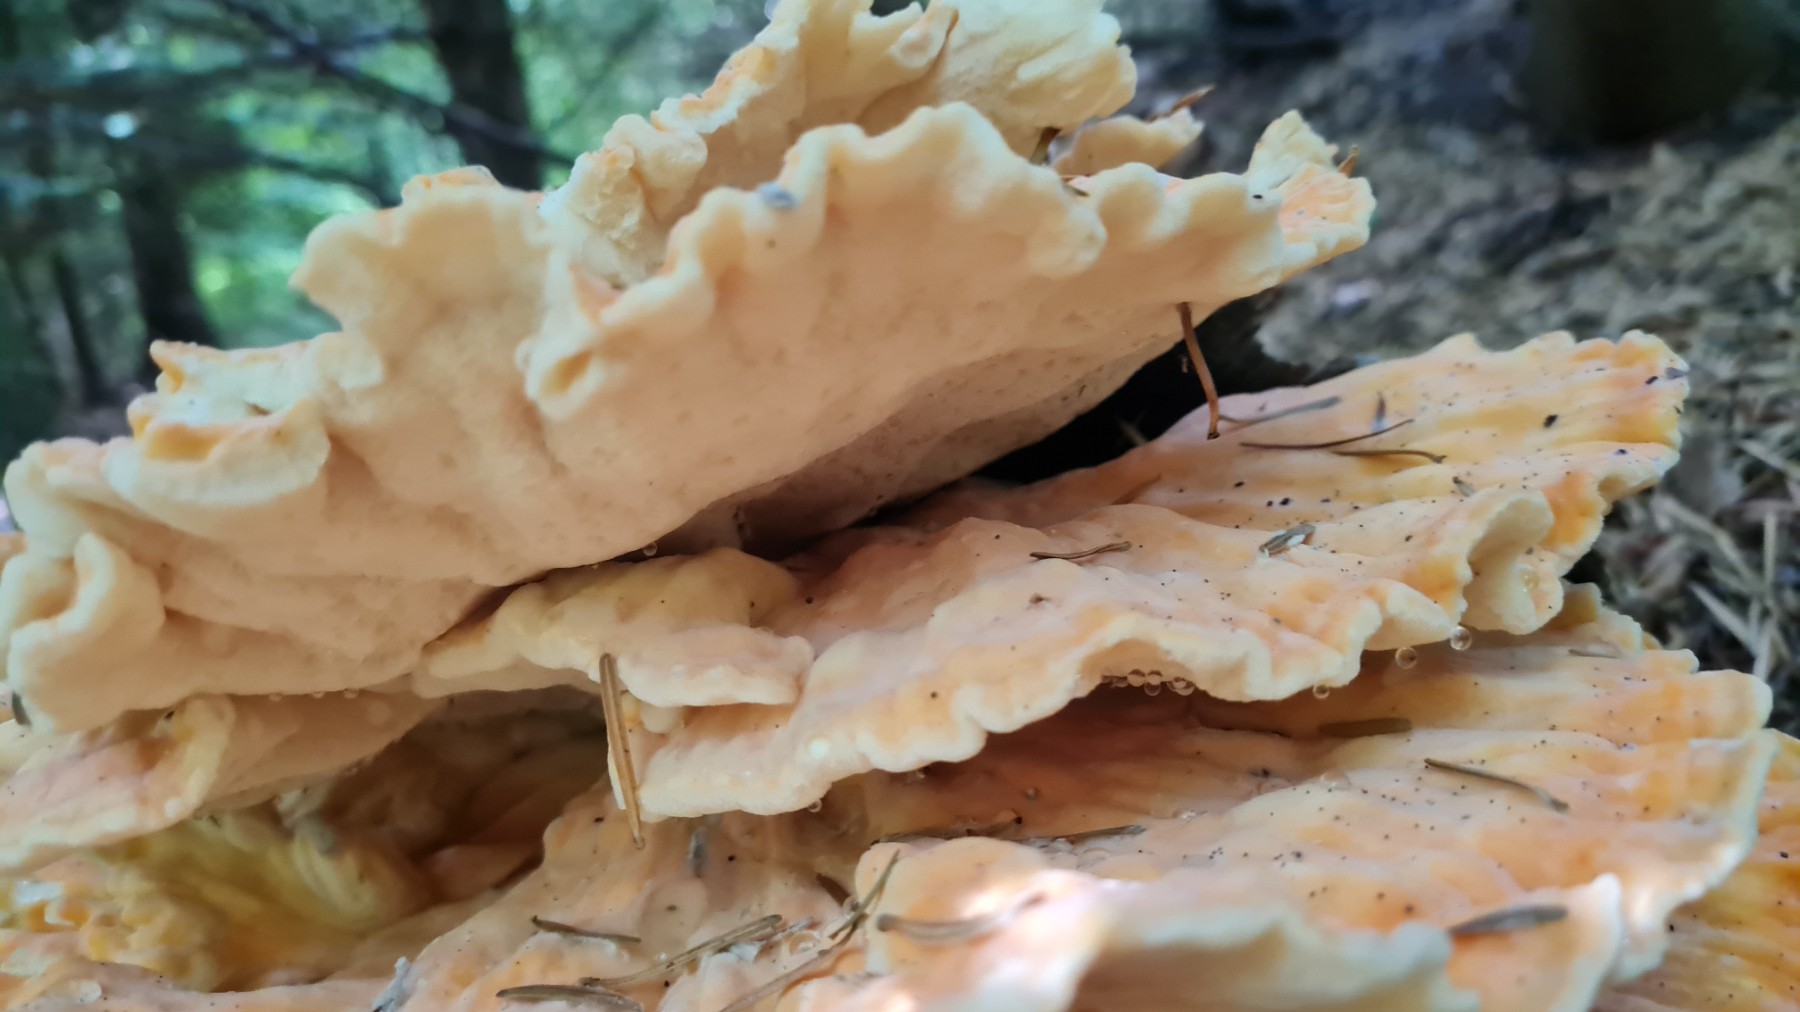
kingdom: Fungi
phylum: Basidiomycota
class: Agaricomycetes
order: Polyporales
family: Laetiporaceae
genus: Laetiporus
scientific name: Laetiporus sulphureus
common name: svovlporesvamp
